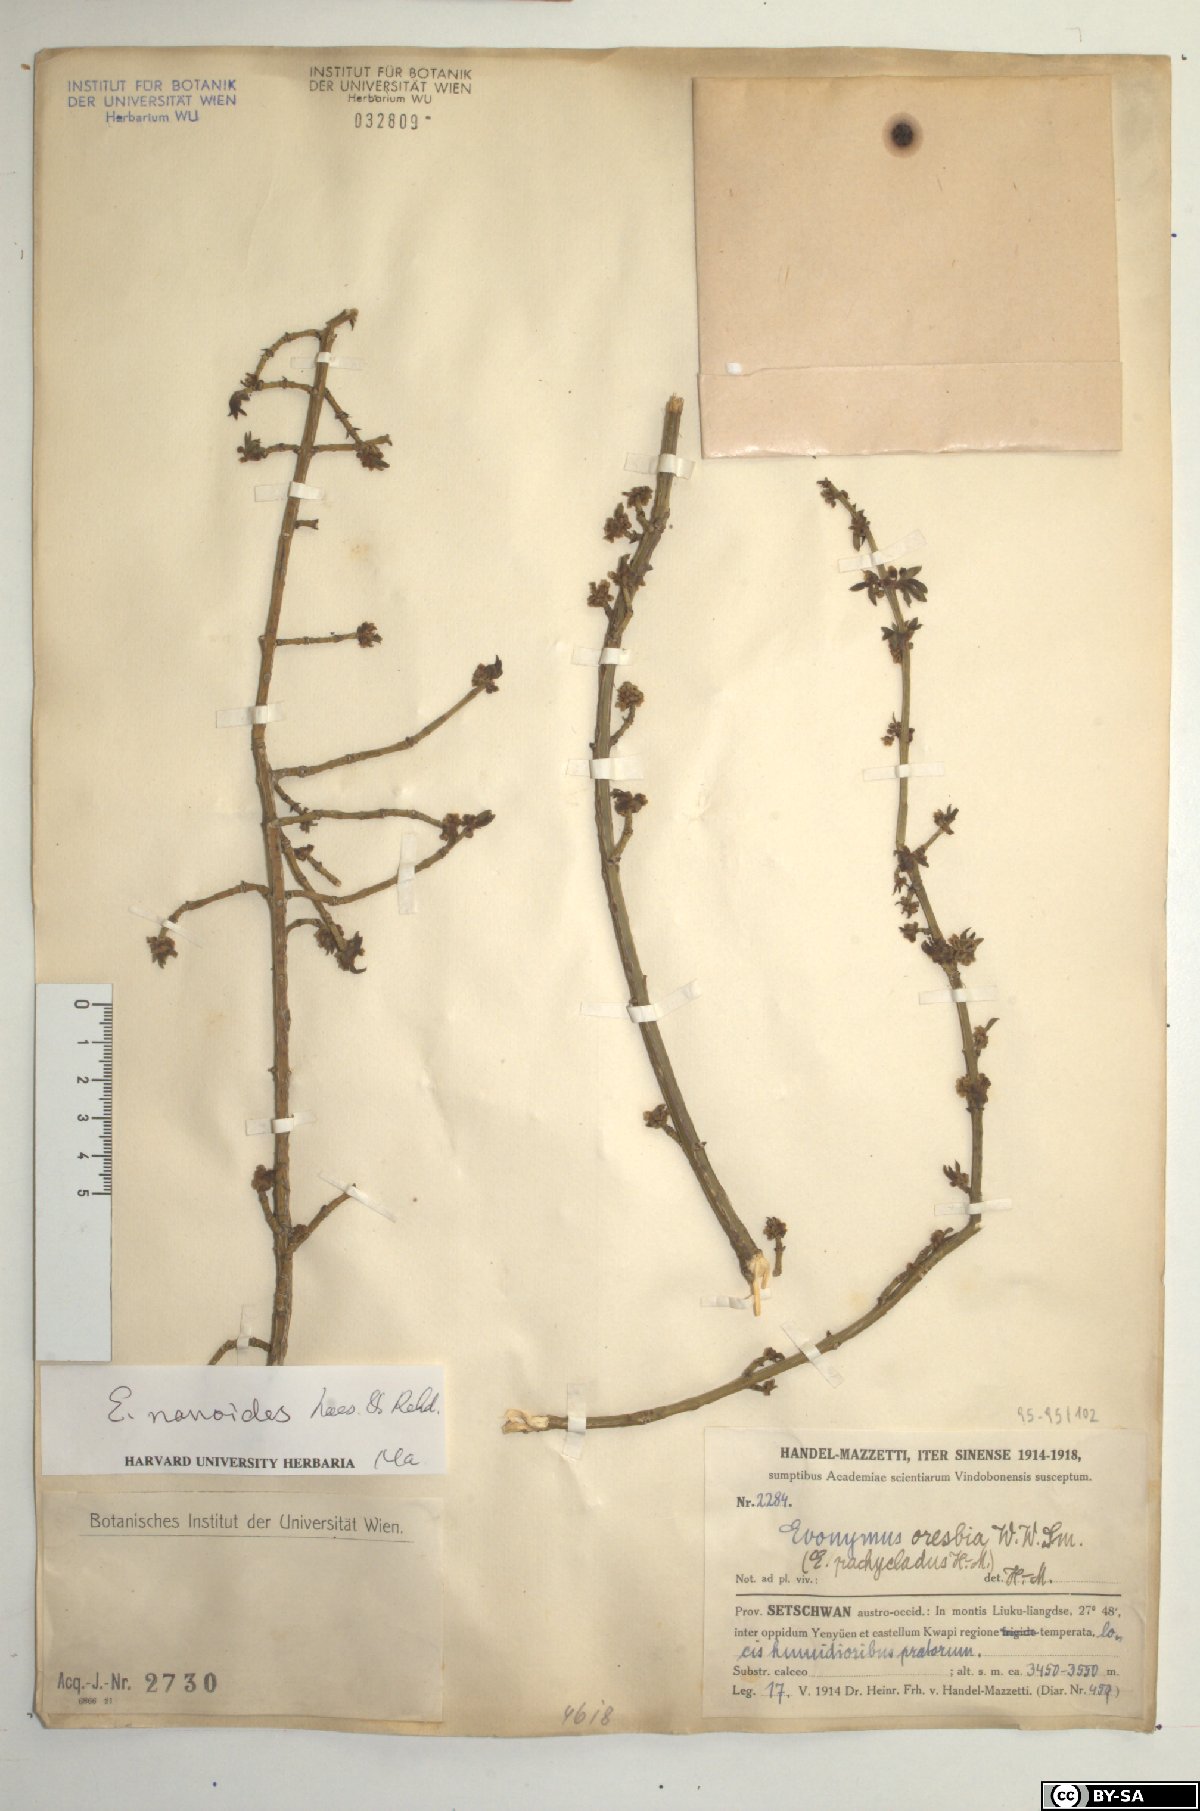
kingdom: Plantae
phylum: Tracheophyta
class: Magnoliopsida
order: Celastrales
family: Celastraceae
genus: Euonymus
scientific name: Euonymus nanoides
